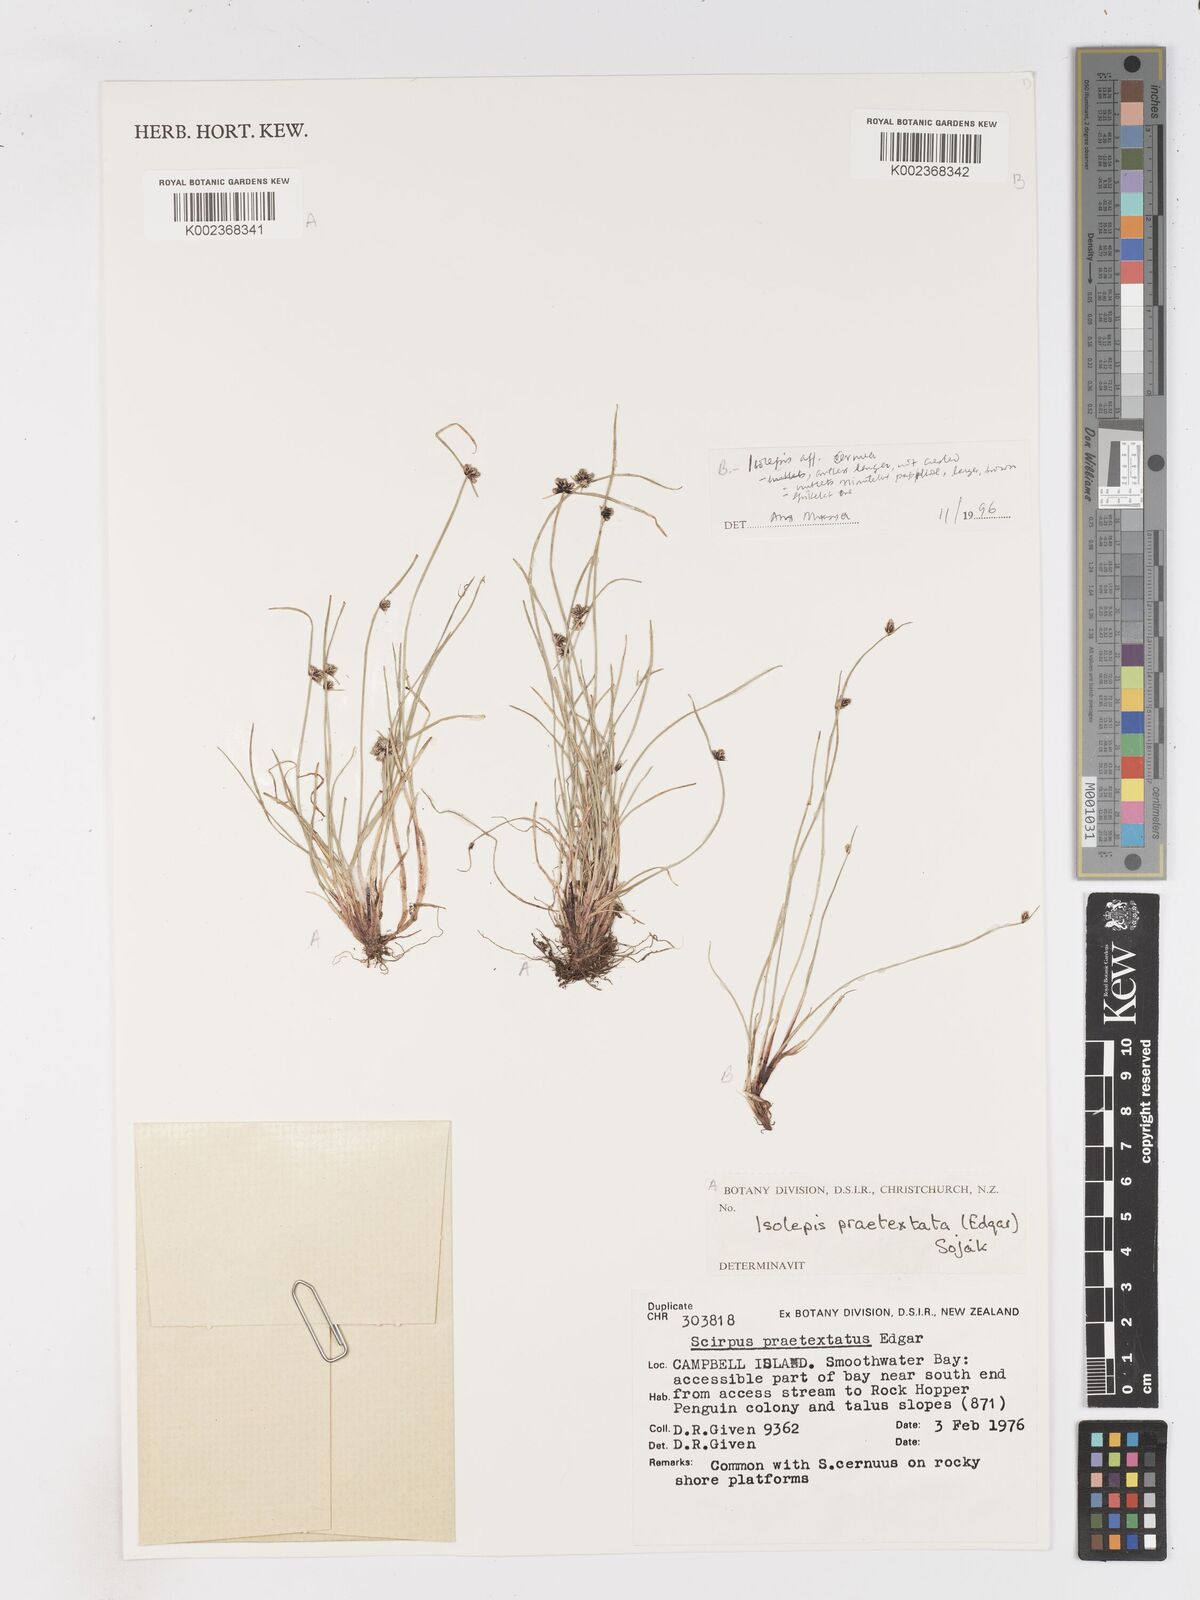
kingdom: Plantae
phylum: Tracheophyta
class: Liliopsida
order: Poales
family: Cyperaceae
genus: Isolepis
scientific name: Isolepis praetextata
